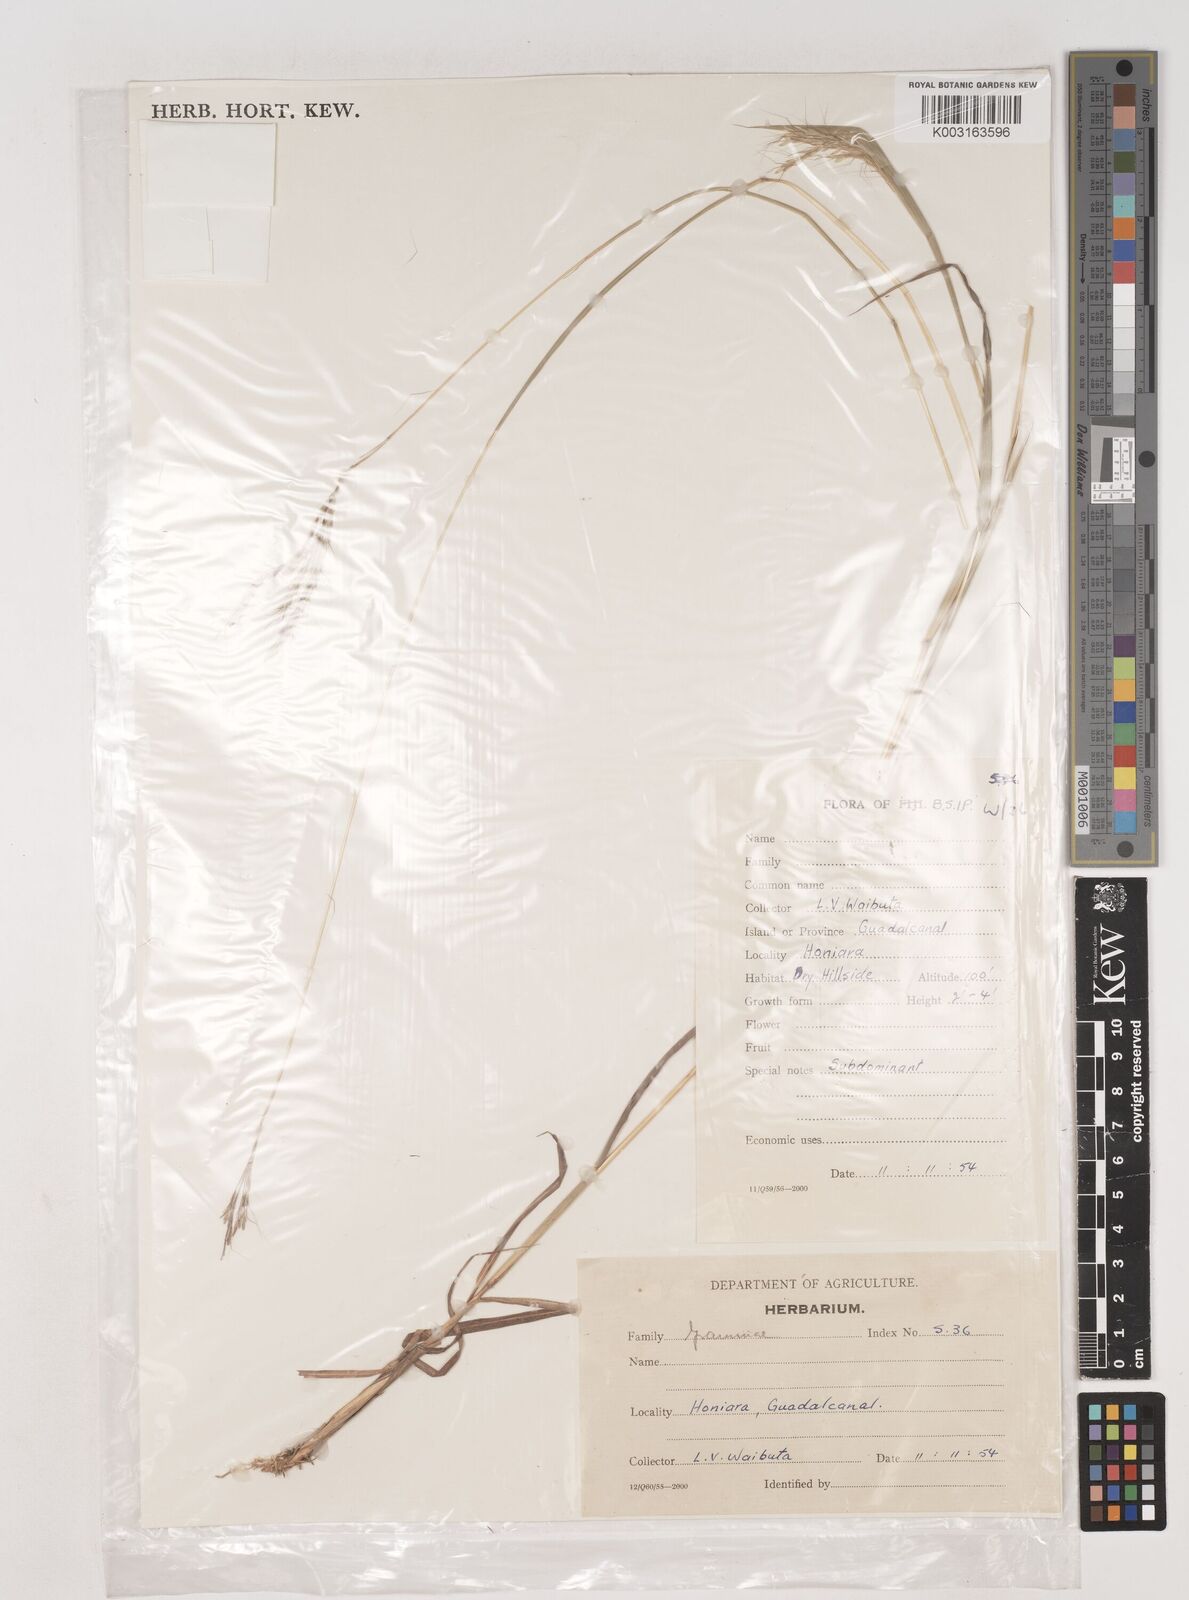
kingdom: Plantae
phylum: Tracheophyta
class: Liliopsida
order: Poales
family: Poaceae
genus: Dichanthium
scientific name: Dichanthium annulatum
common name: Kleberg's bluestem
